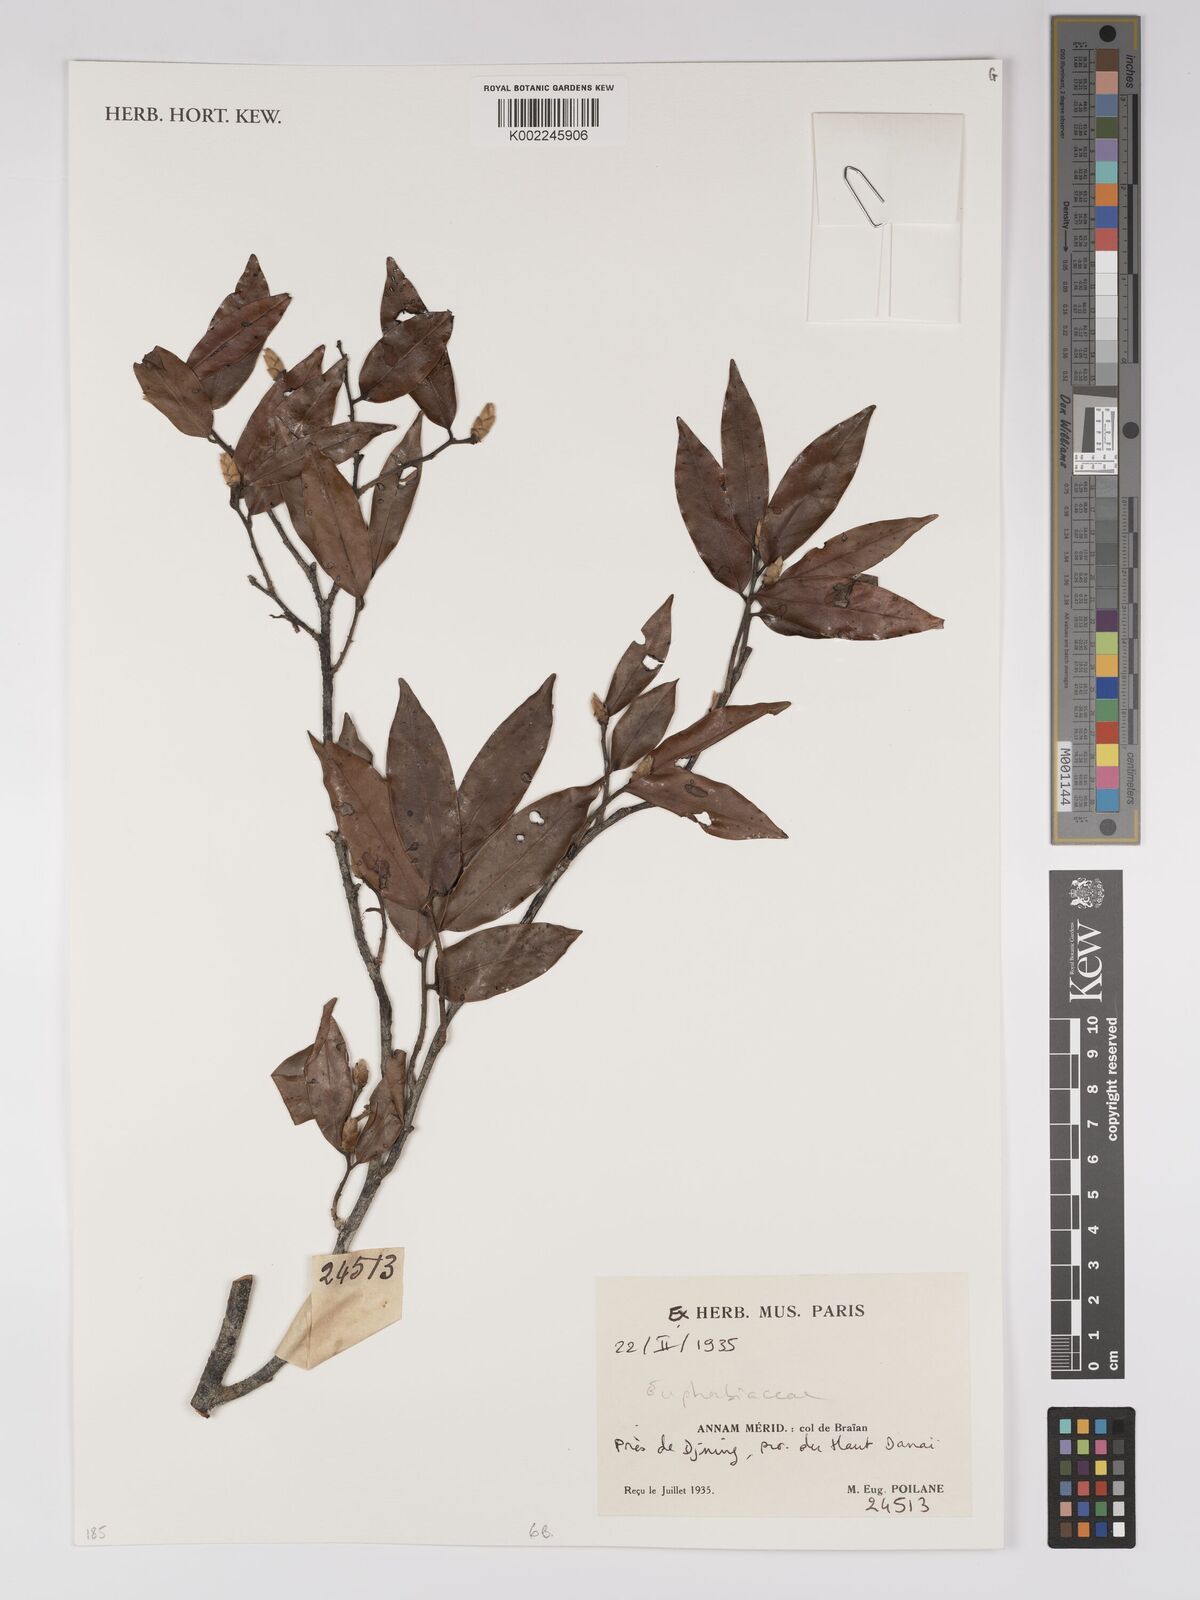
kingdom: Plantae
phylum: Tracheophyta
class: Magnoliopsida
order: Malpighiales
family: Euphorbiaceae
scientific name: Euphorbiaceae
